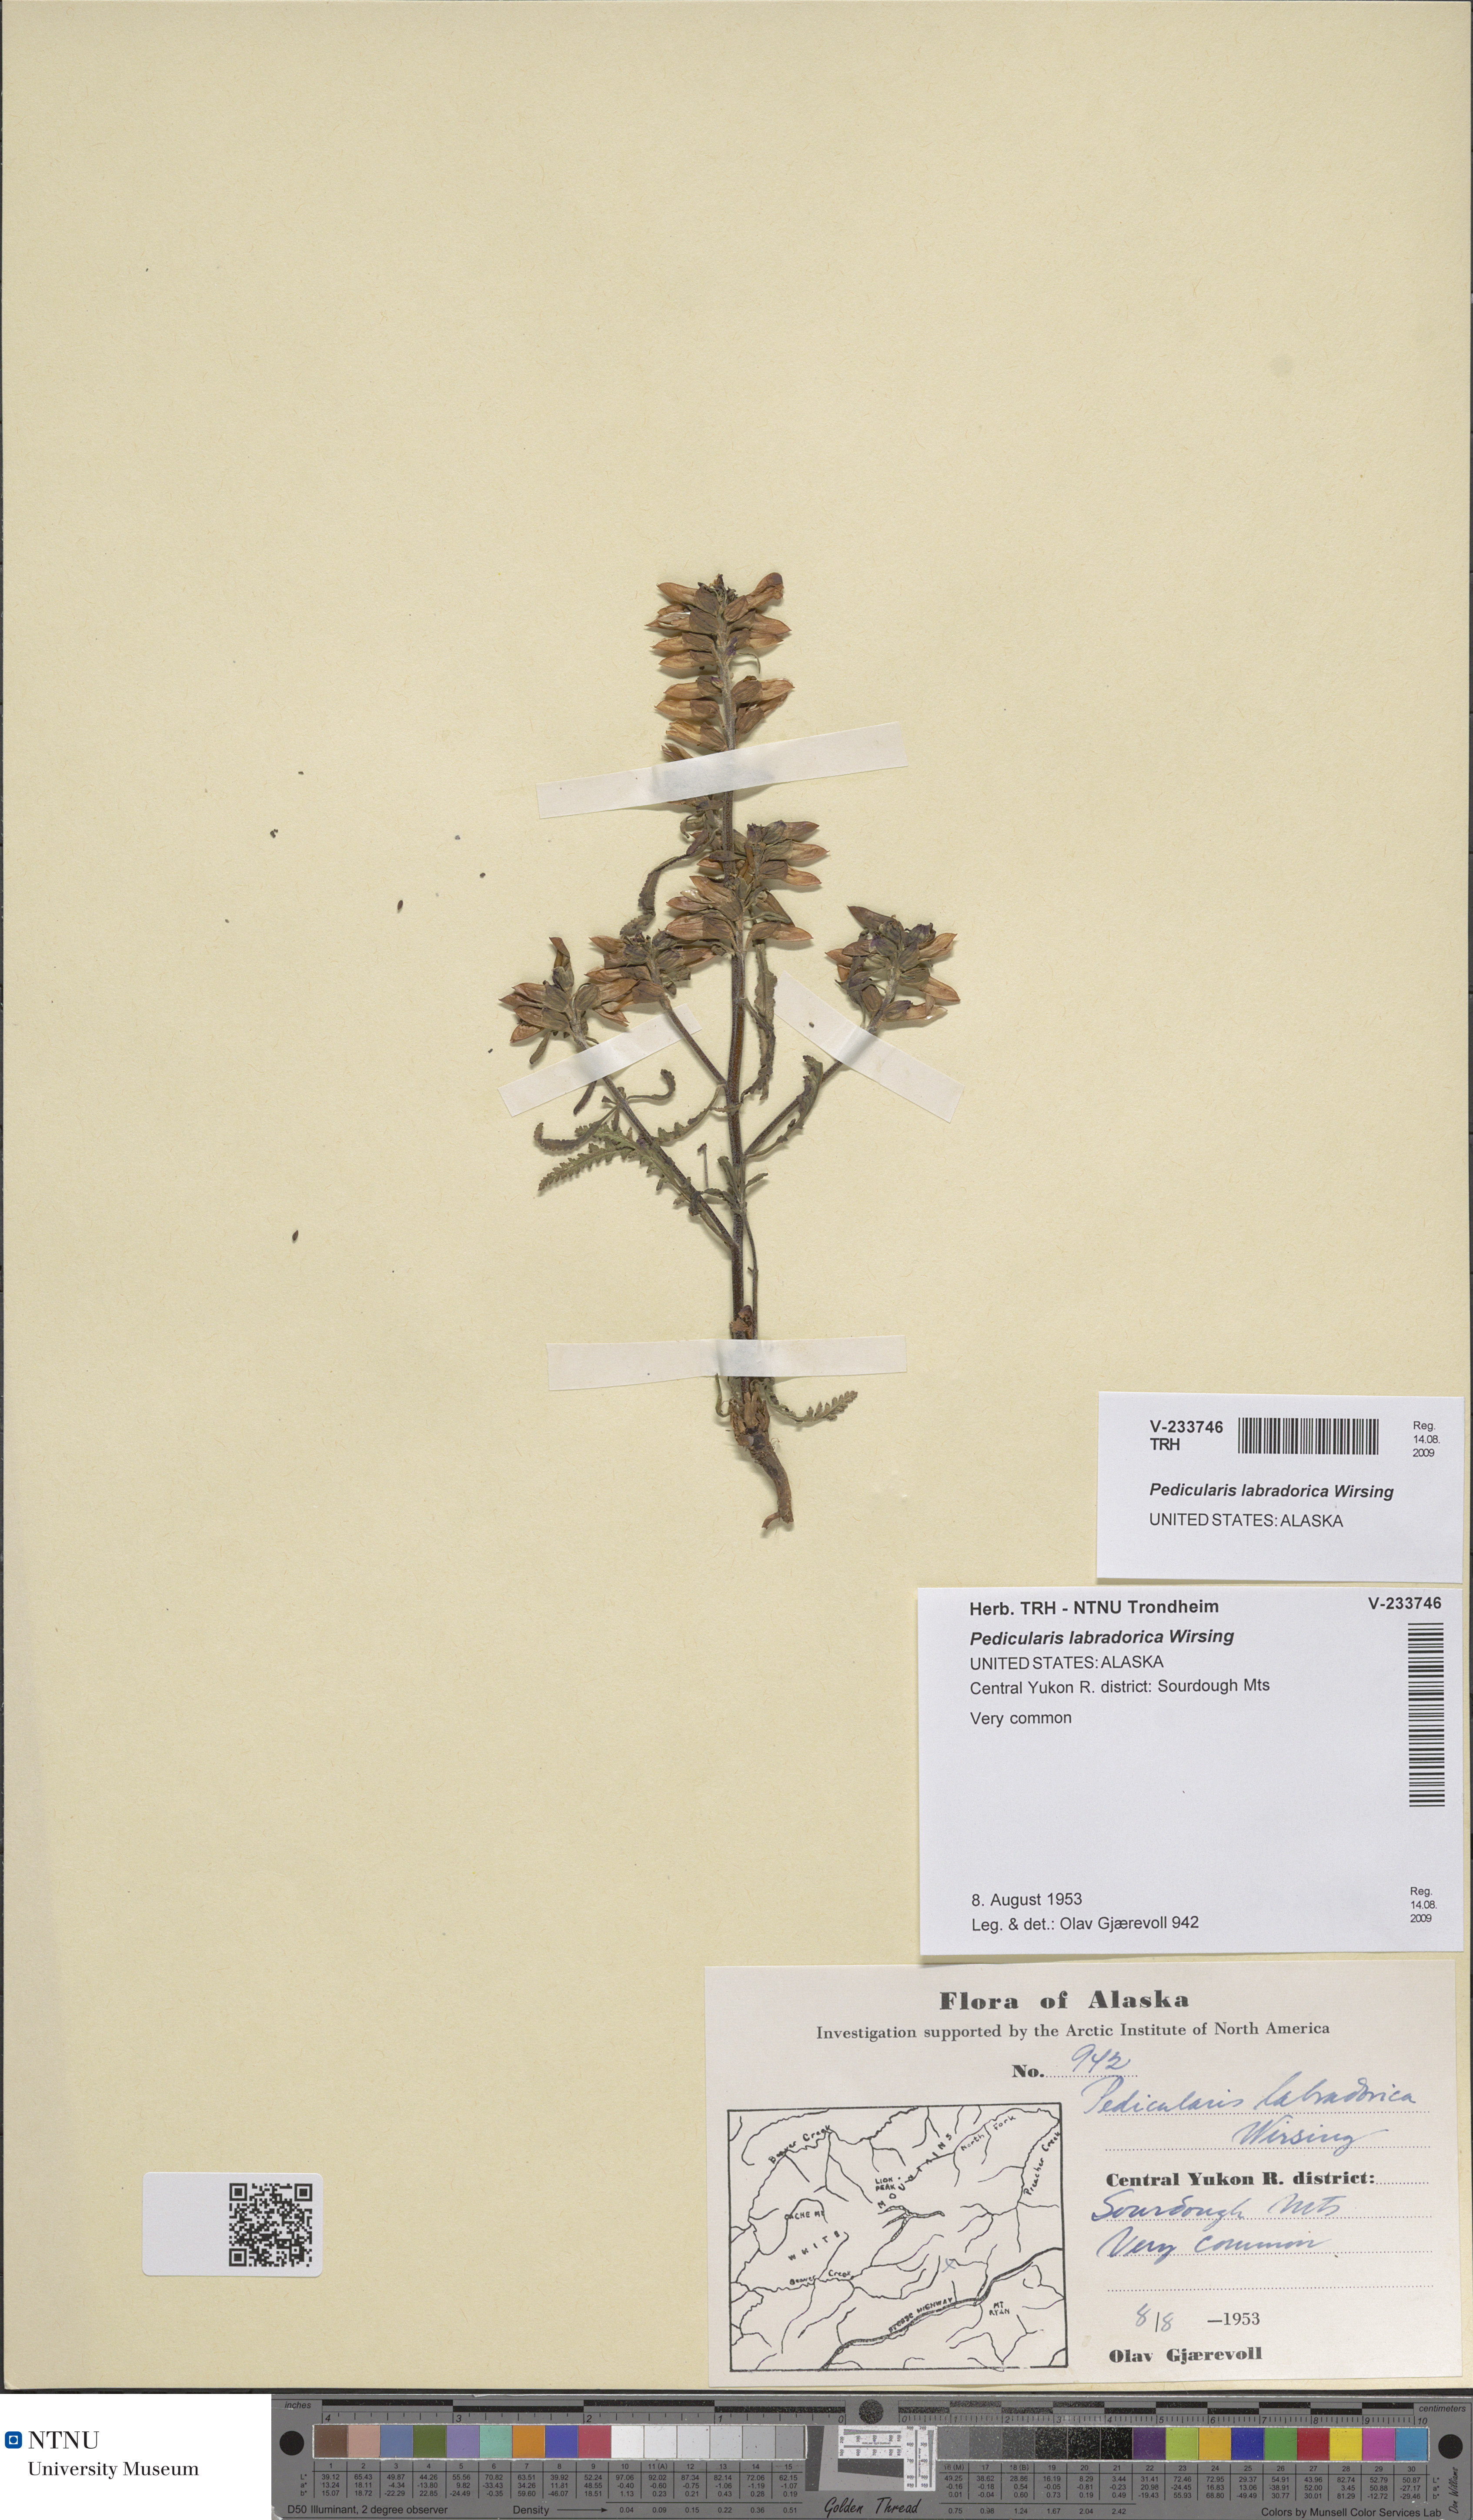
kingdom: Plantae
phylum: Tracheophyta
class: Magnoliopsida
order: Lamiales
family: Orobanchaceae
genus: Pedicularis
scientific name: Pedicularis labradorica
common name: Labrador lousewort
